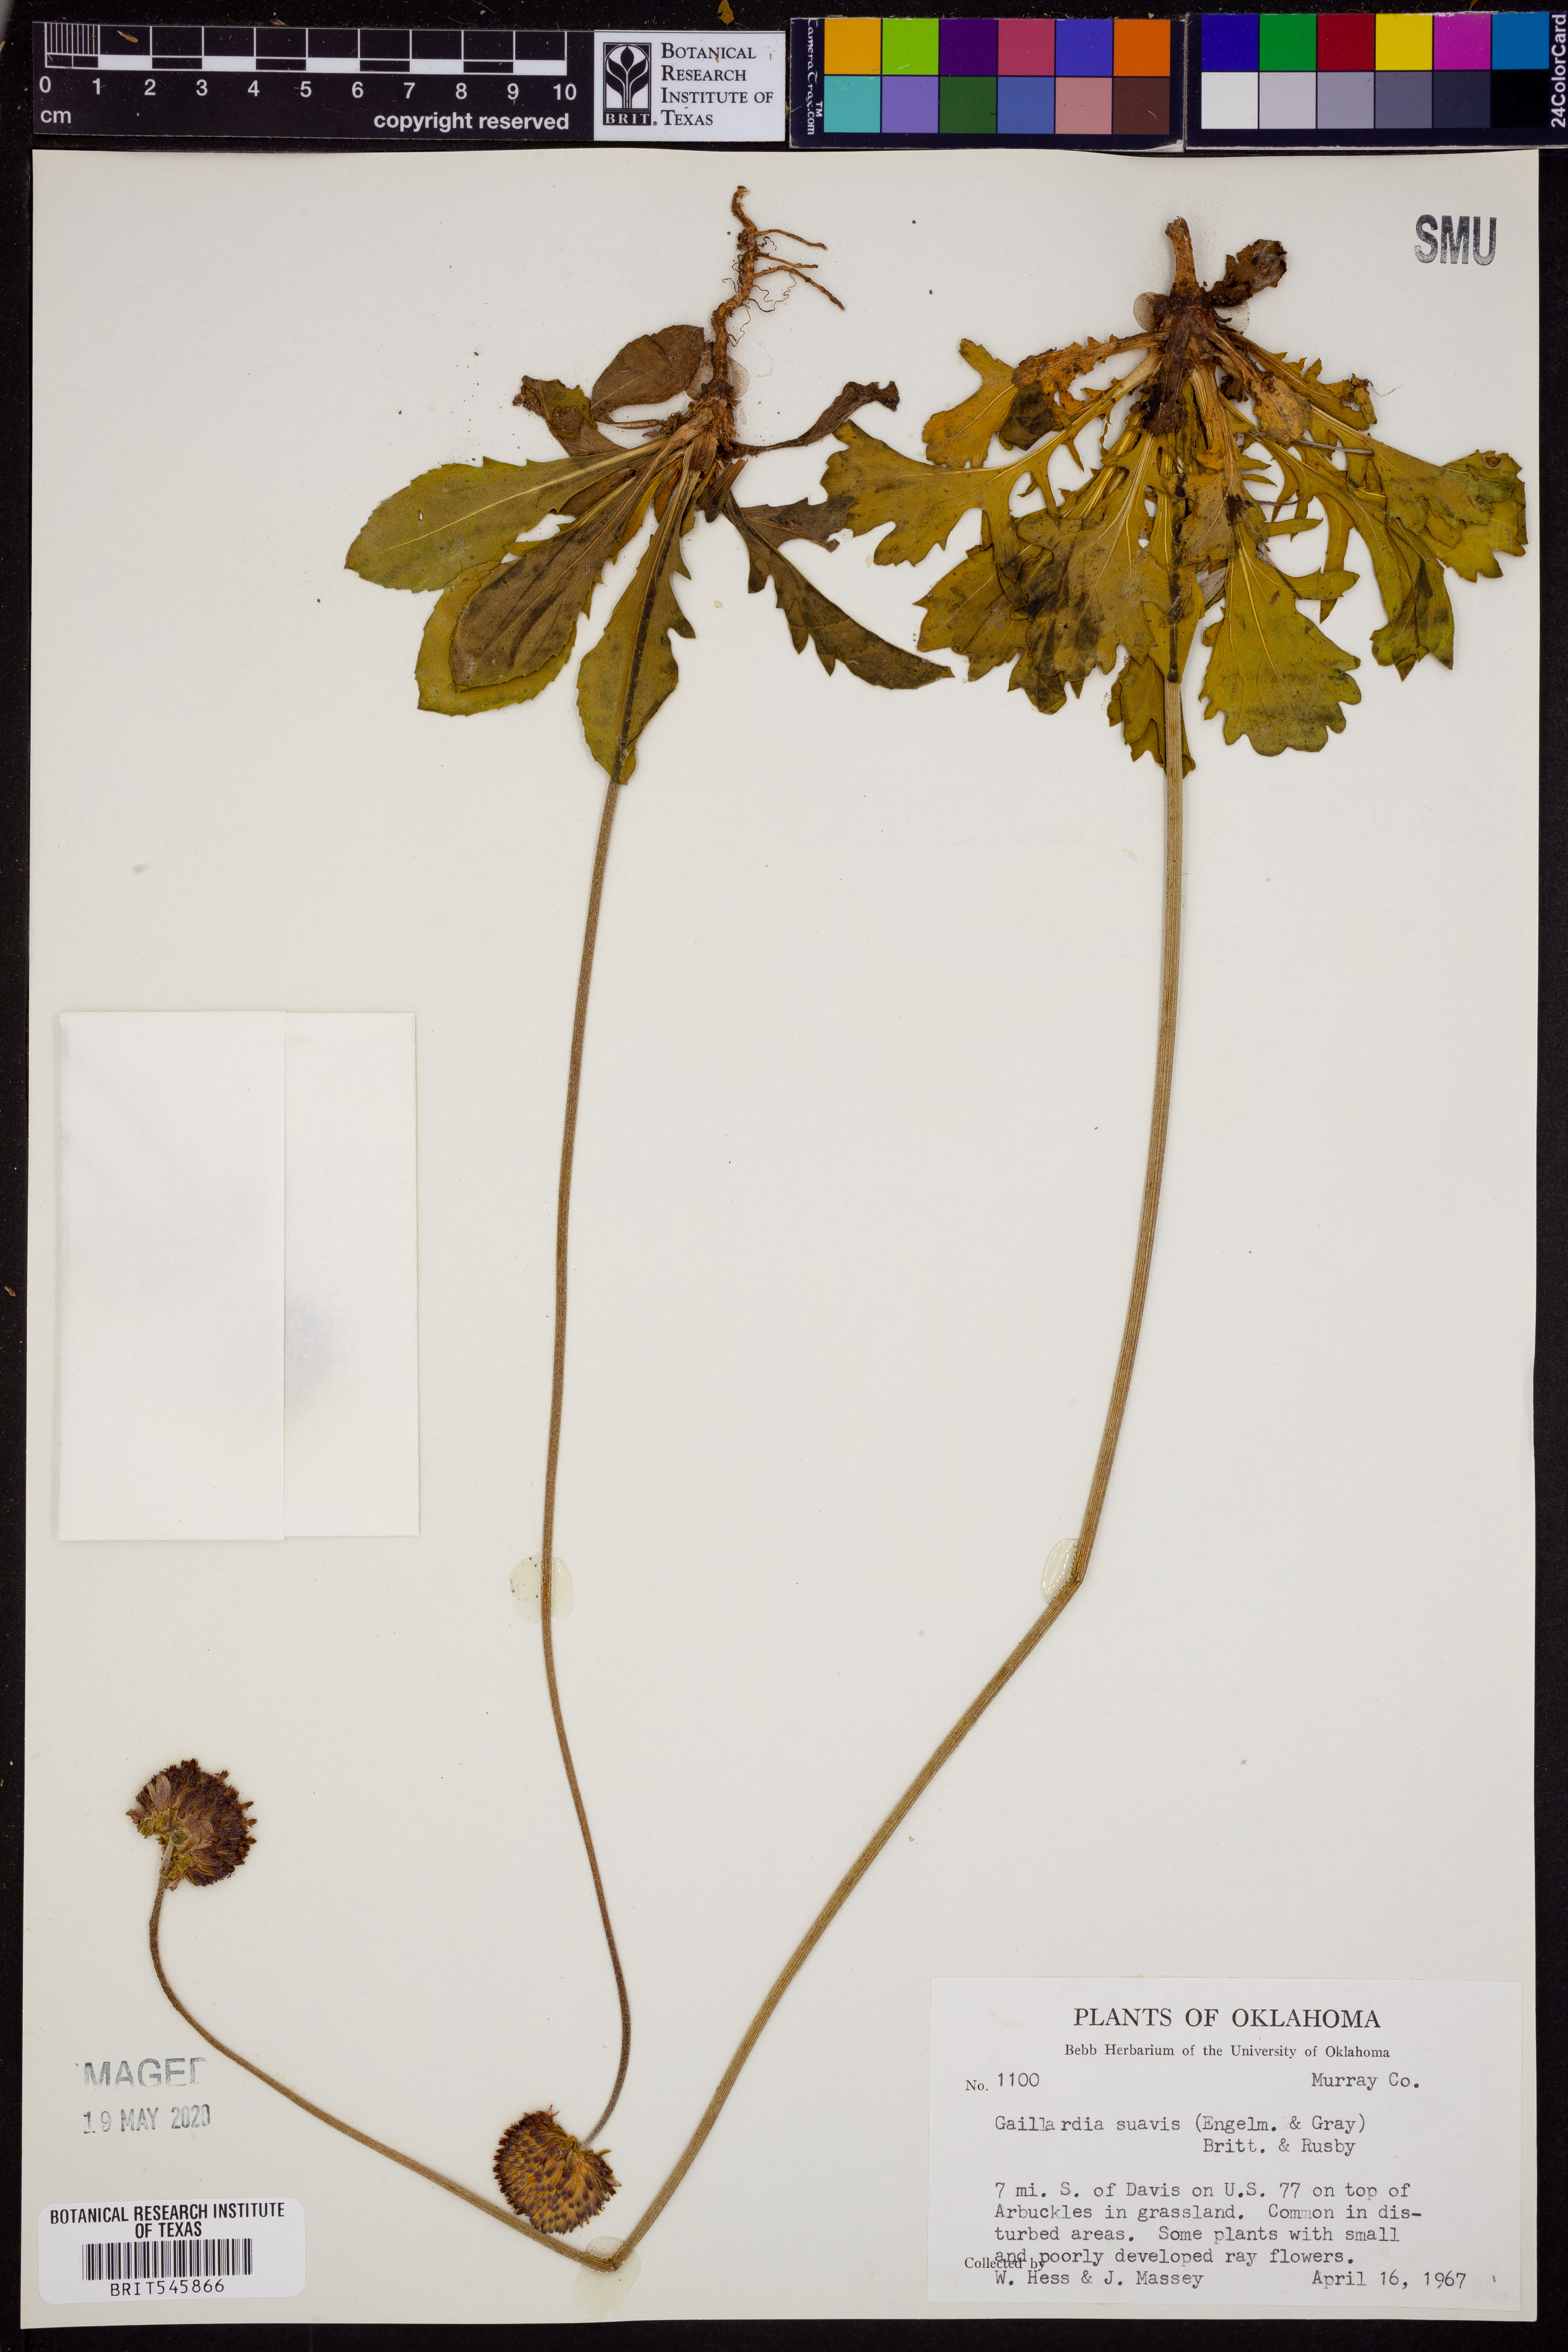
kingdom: Plantae
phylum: Tracheophyta
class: Magnoliopsida
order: Asterales
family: Asteraceae
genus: Gaillardia
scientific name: Gaillardia suavis
